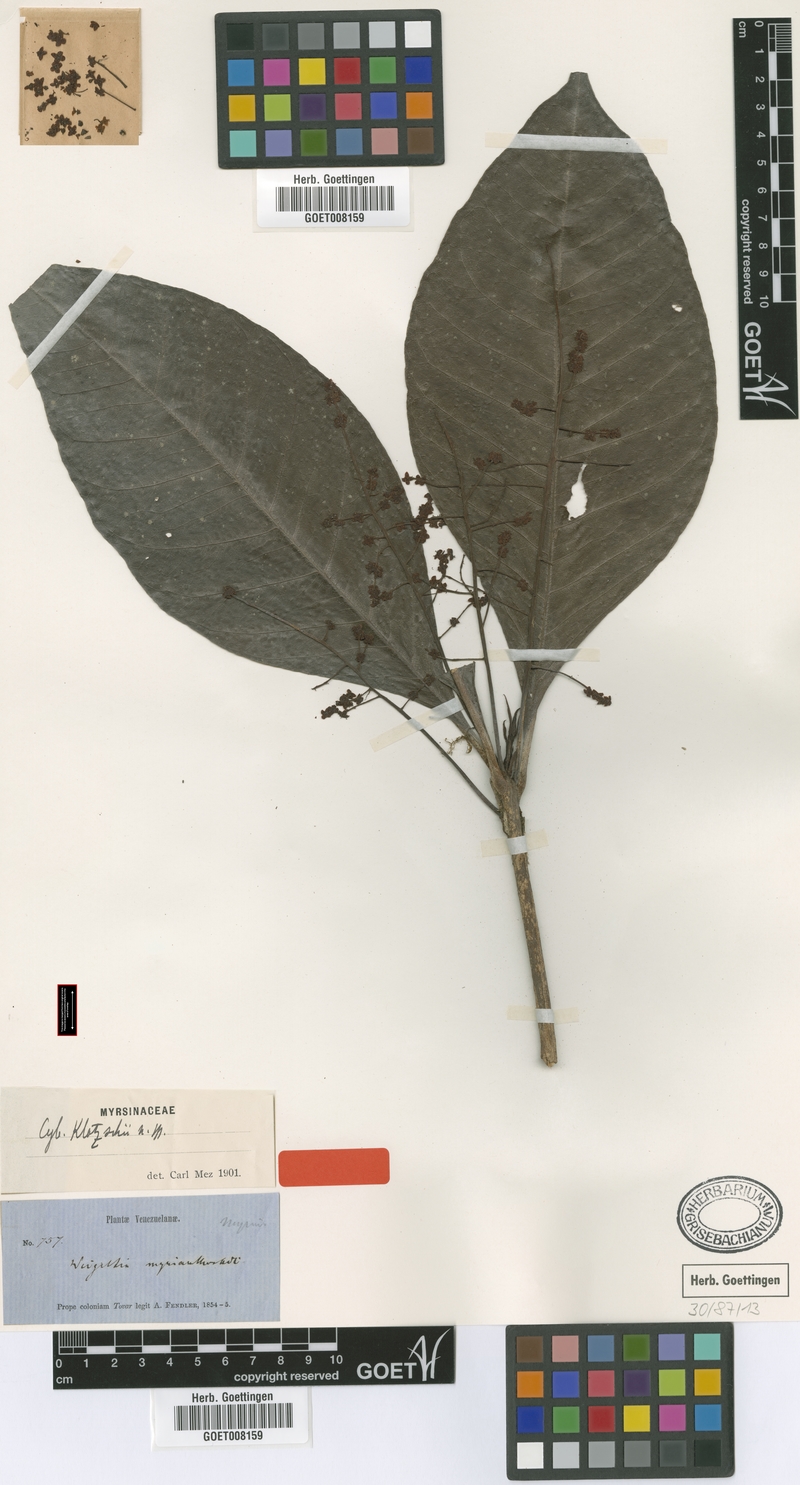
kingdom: Plantae
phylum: Tracheophyta
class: Magnoliopsida
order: Ericales
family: Primulaceae
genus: Cybianthus
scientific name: Cybianthus klotzschii
